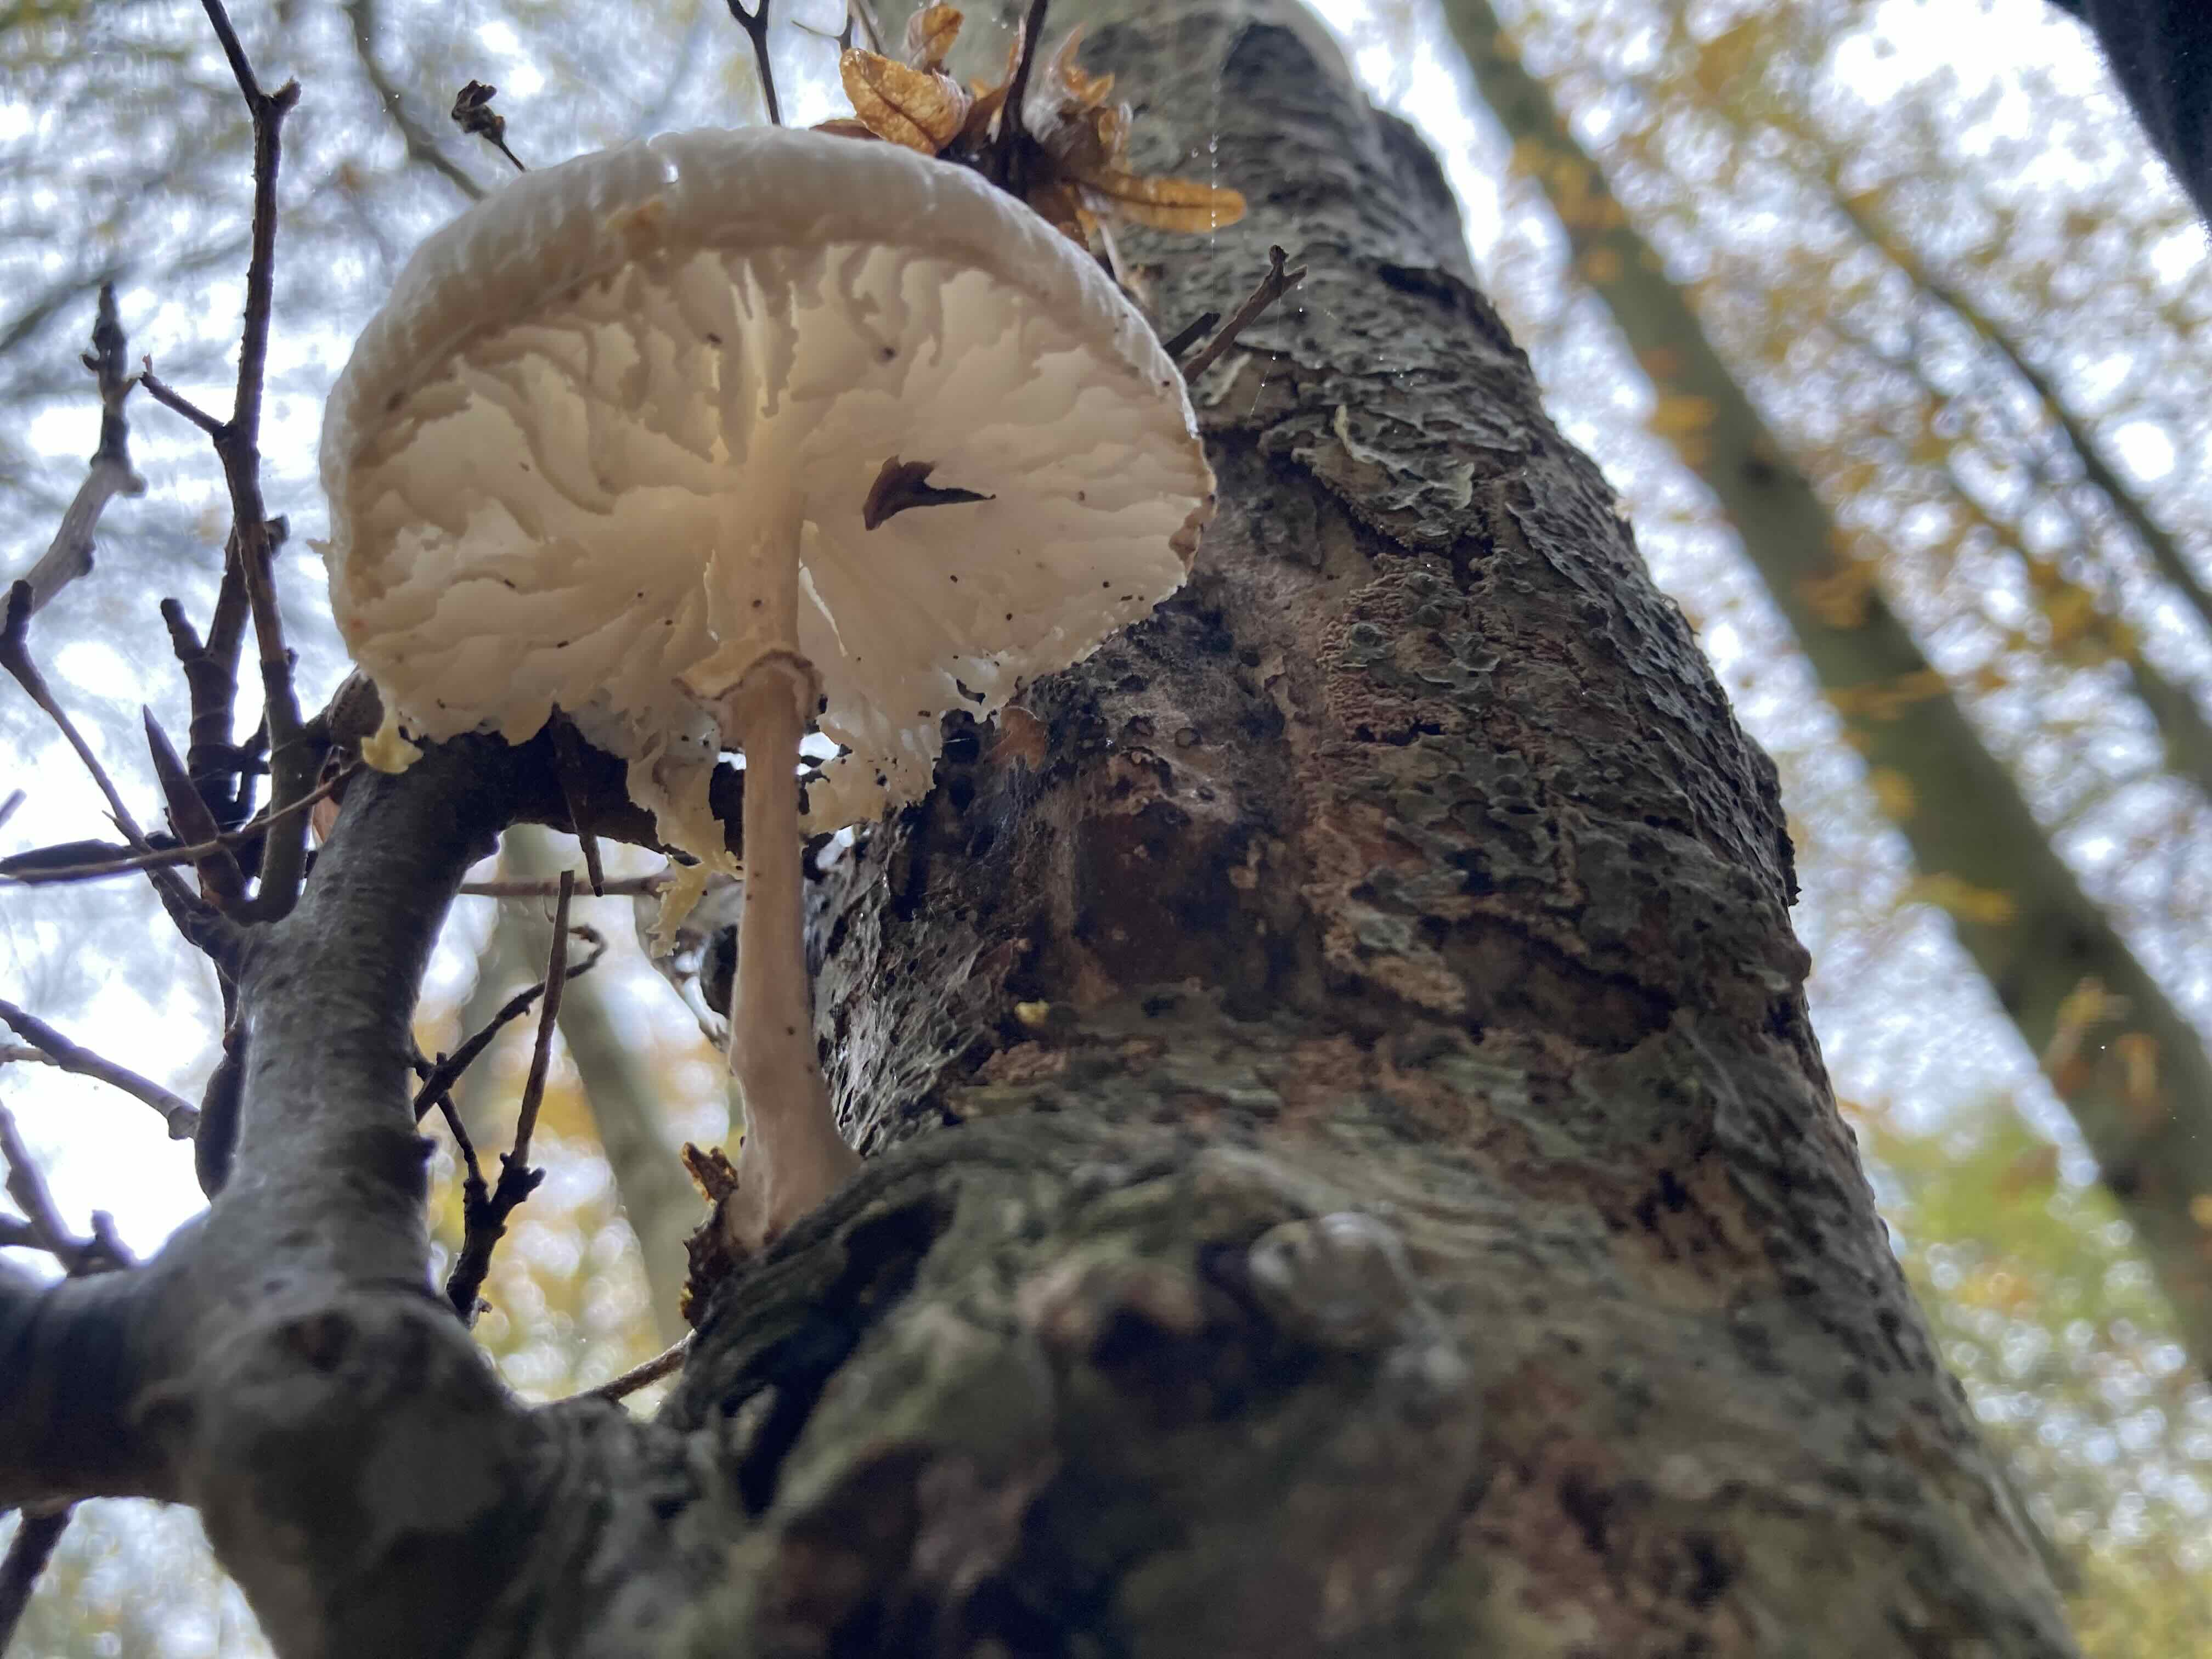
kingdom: Fungi
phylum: Basidiomycota
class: Agaricomycetes
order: Agaricales
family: Physalacriaceae
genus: Mucidula
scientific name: Mucidula mucida
